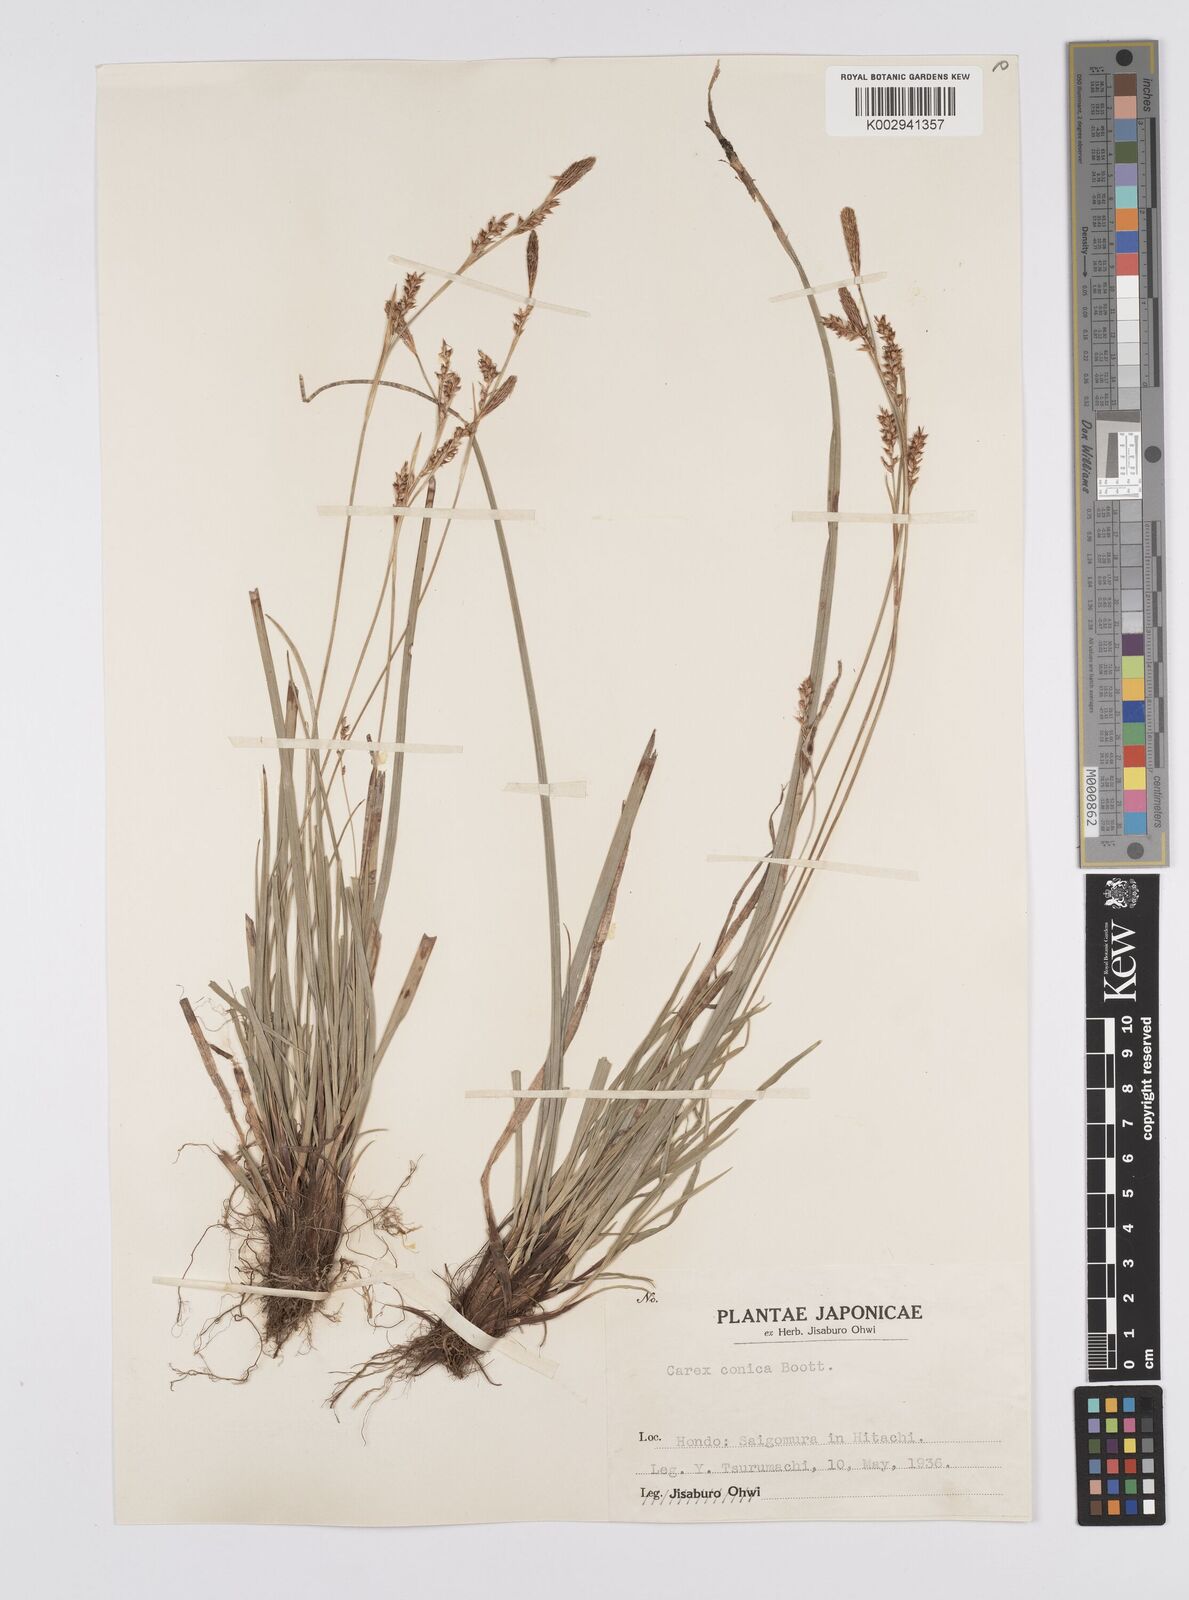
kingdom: Plantae
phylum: Tracheophyta
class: Liliopsida
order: Poales
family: Cyperaceae
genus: Carex
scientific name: Carex conica
